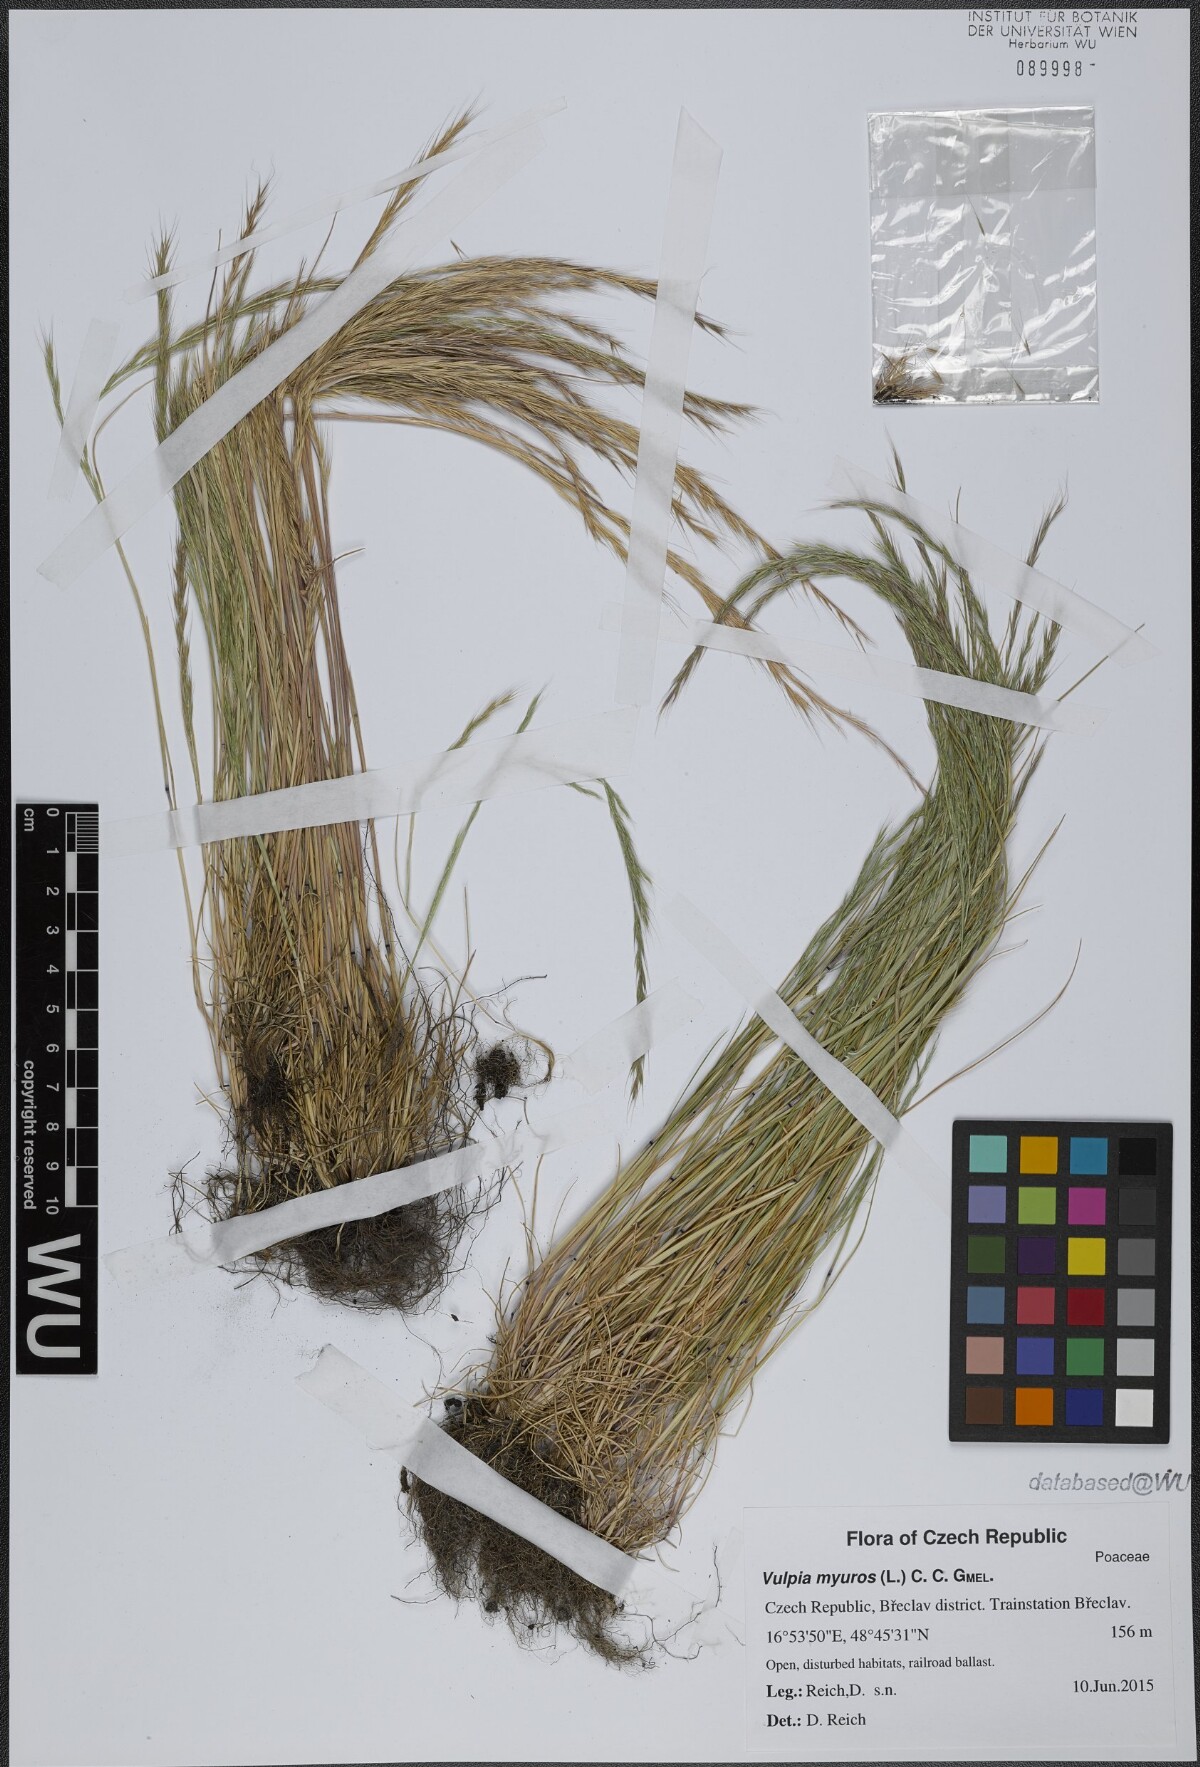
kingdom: Plantae
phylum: Tracheophyta
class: Liliopsida
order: Poales
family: Poaceae
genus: Festuca
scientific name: Festuca myuros
